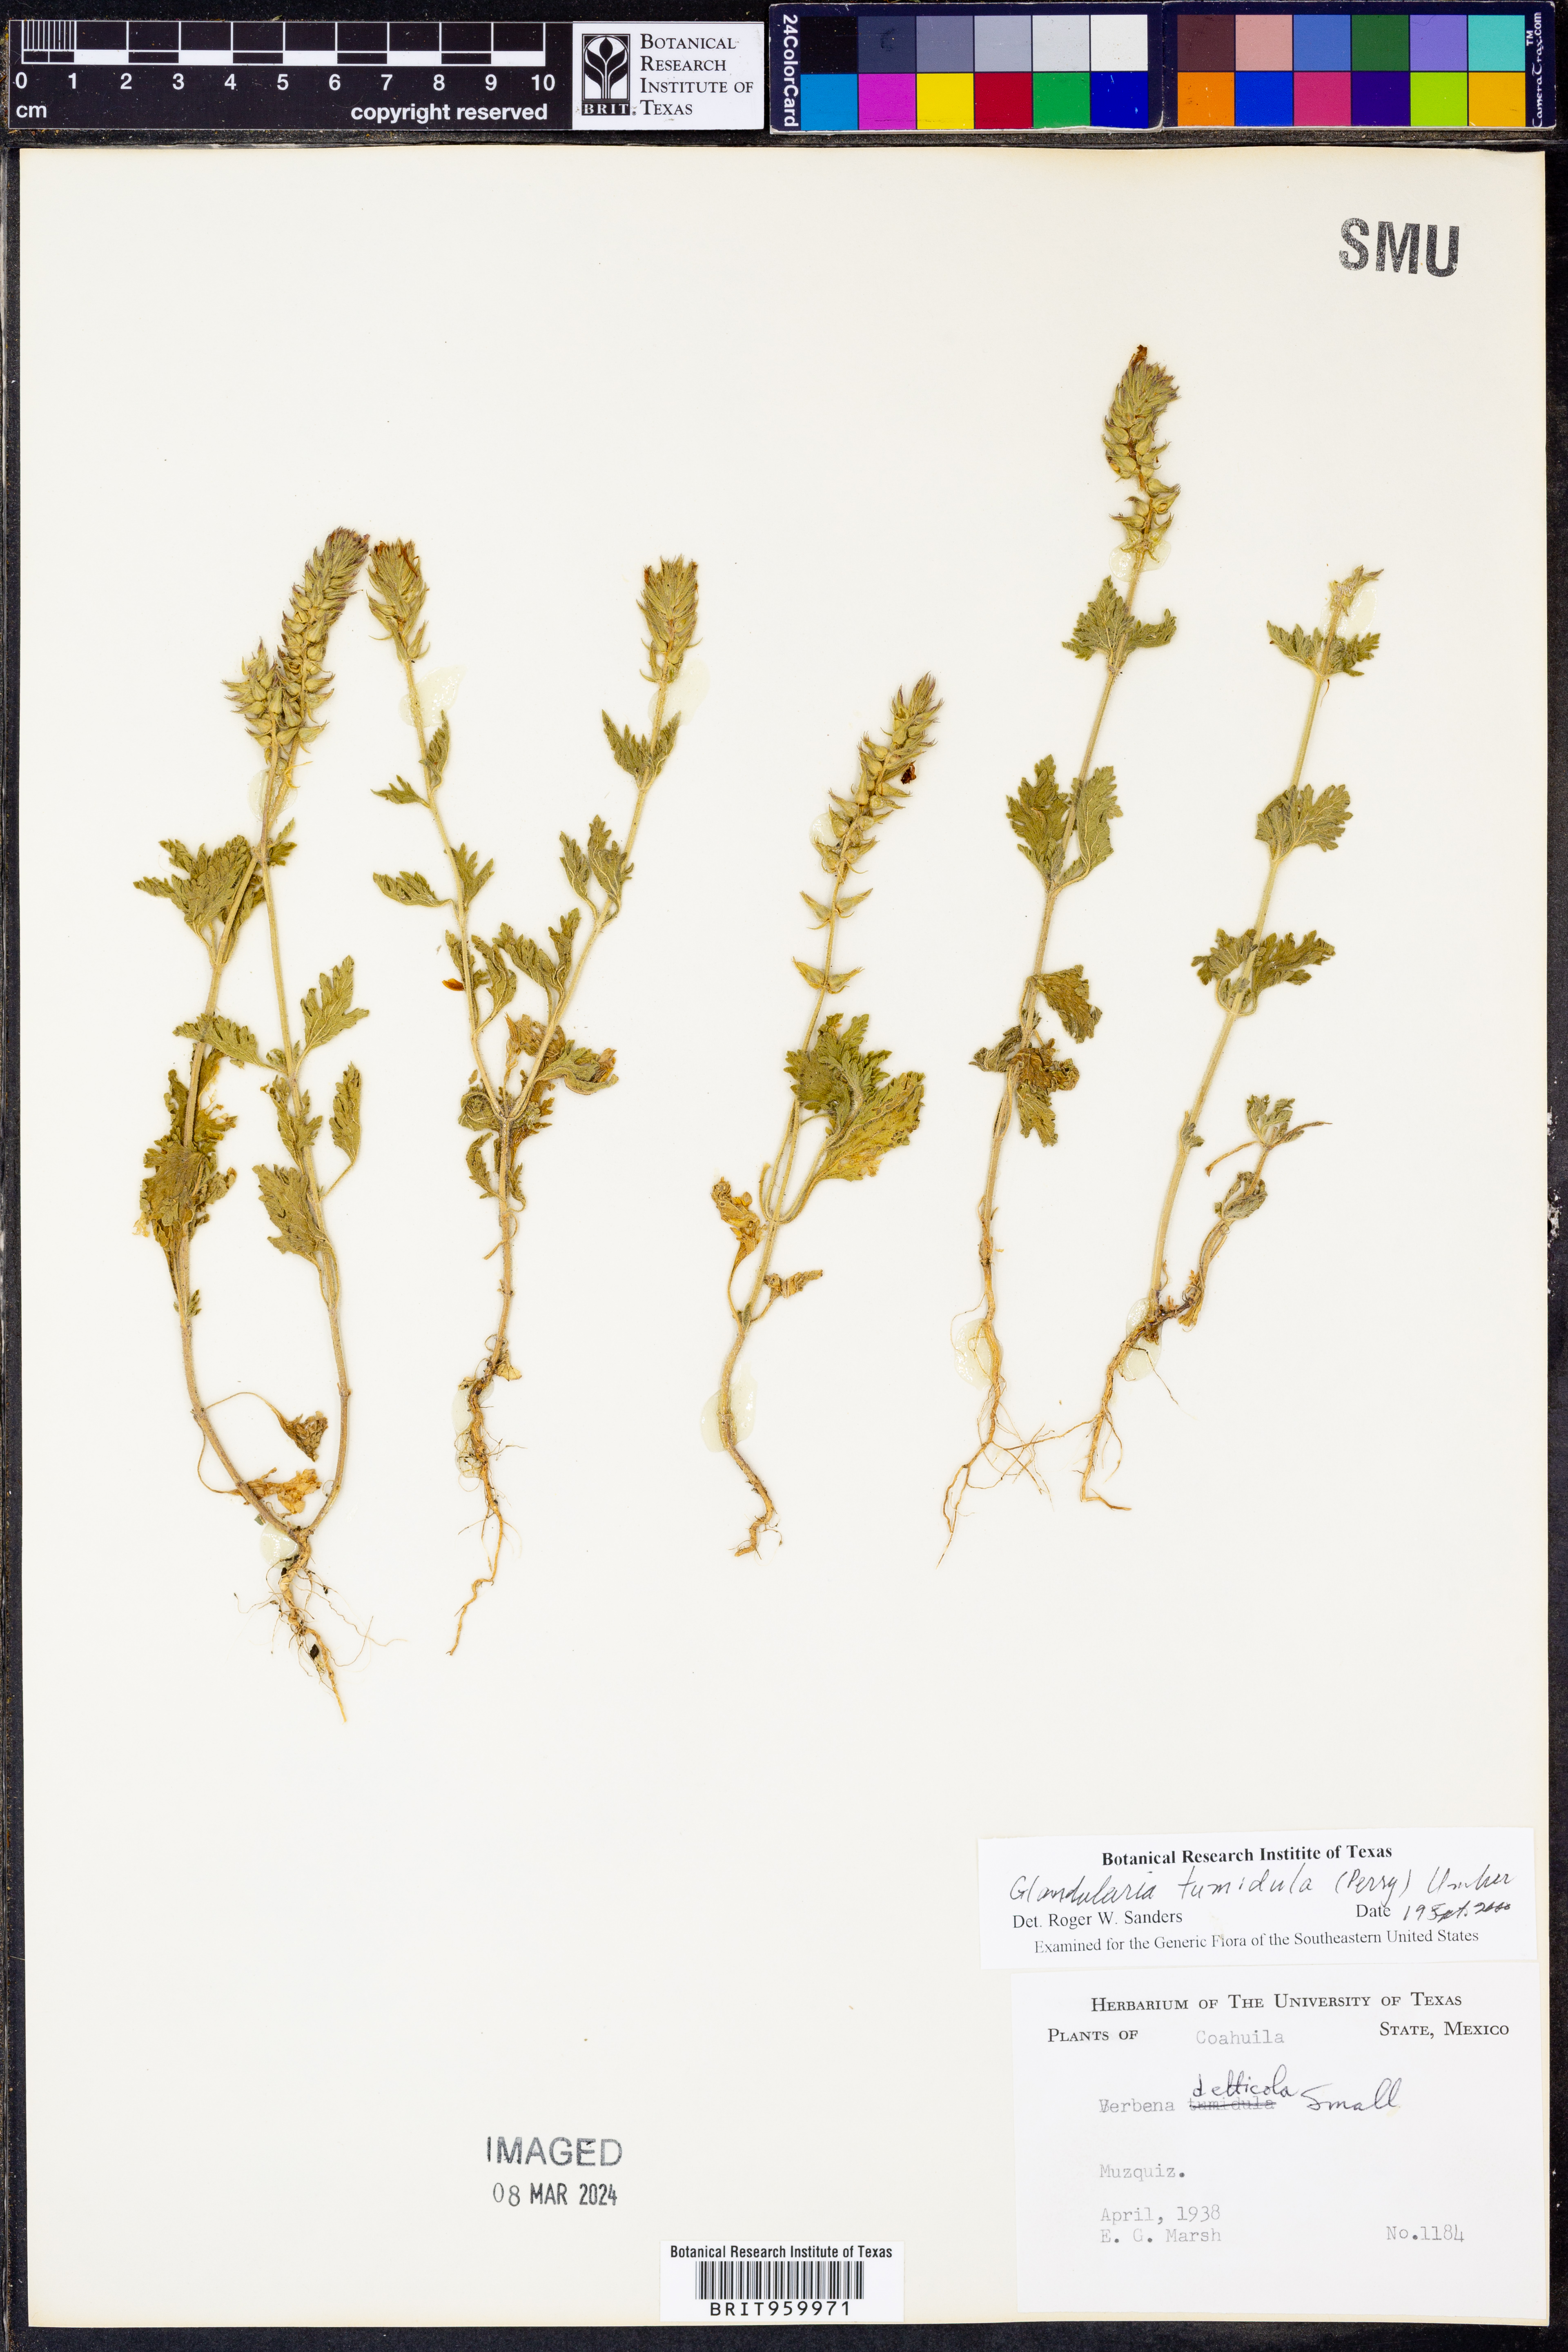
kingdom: Plantae
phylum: Tracheophyta
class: Magnoliopsida
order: Lamiales
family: Verbenaceae
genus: Verbena
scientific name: Verbena tumidula
